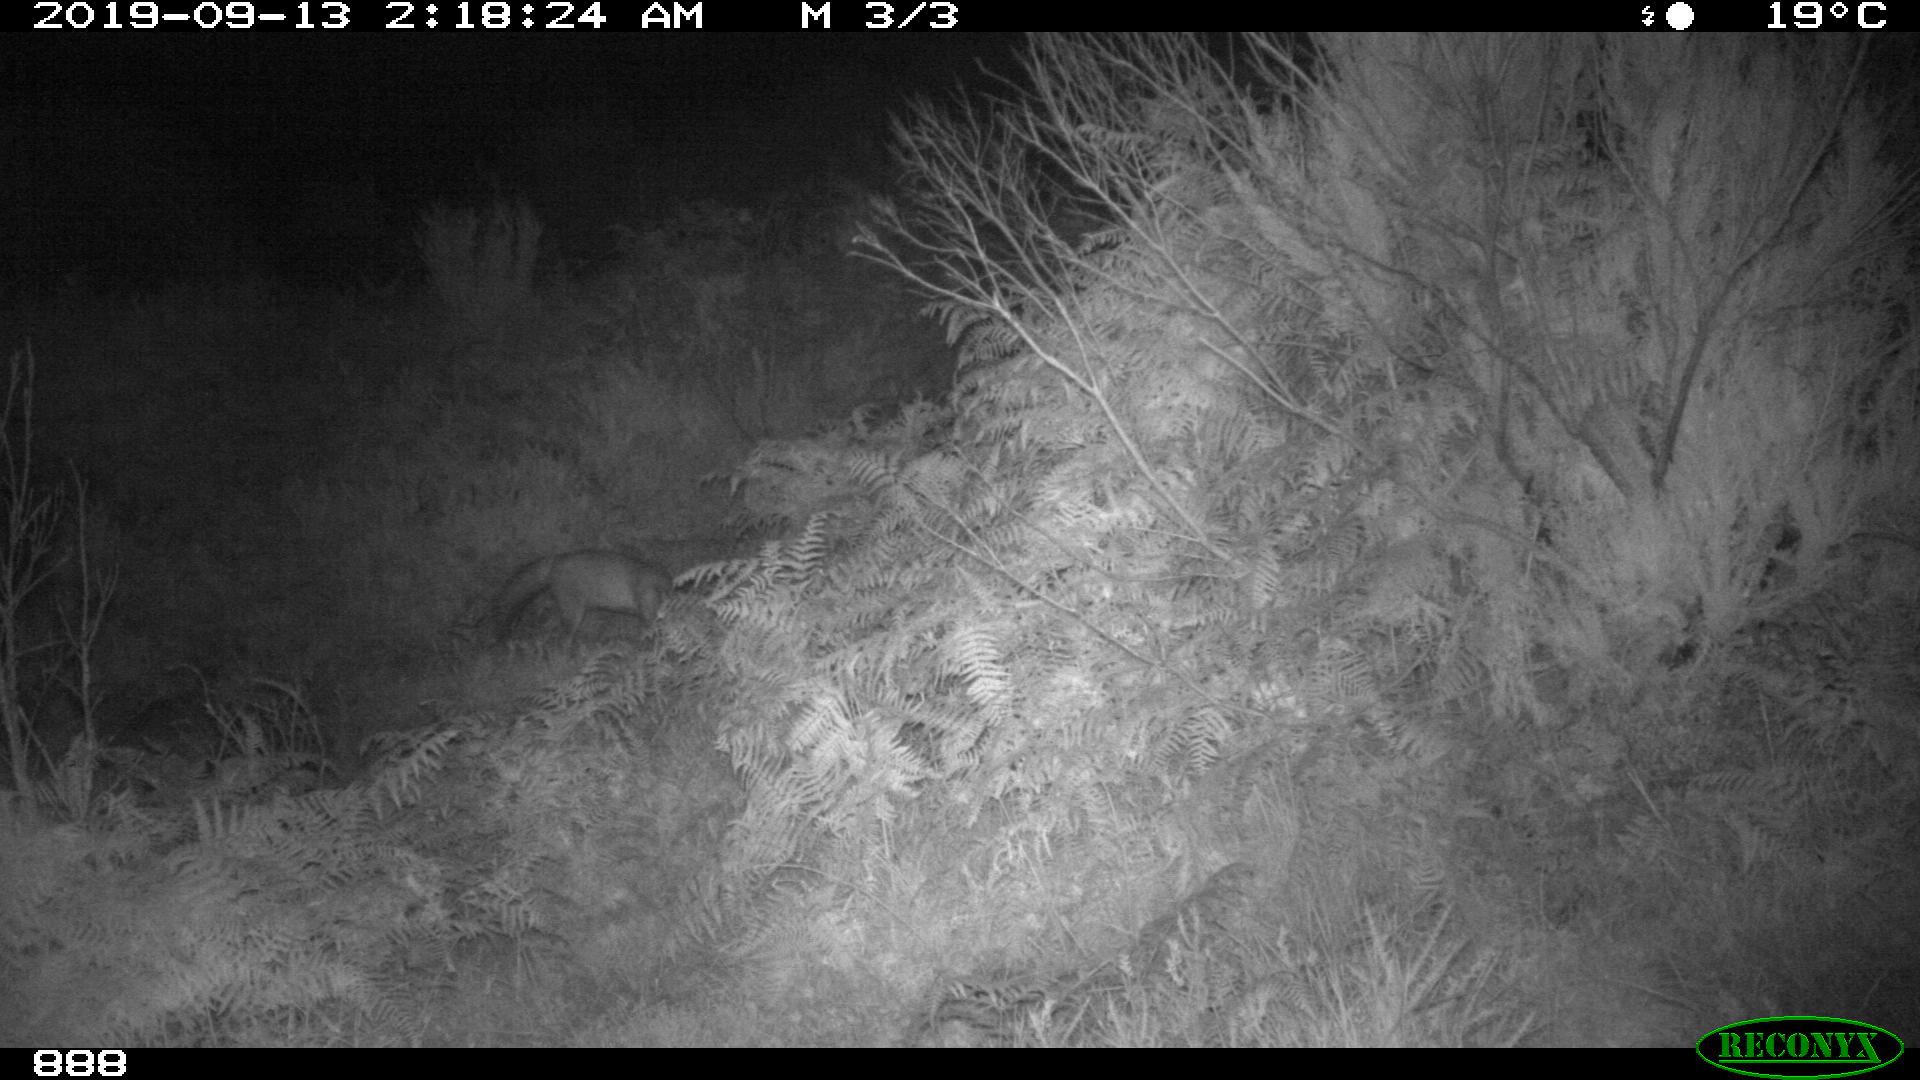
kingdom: Animalia
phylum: Chordata
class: Mammalia
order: Carnivora
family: Canidae
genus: Vulpes
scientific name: Vulpes vulpes
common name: Red fox
